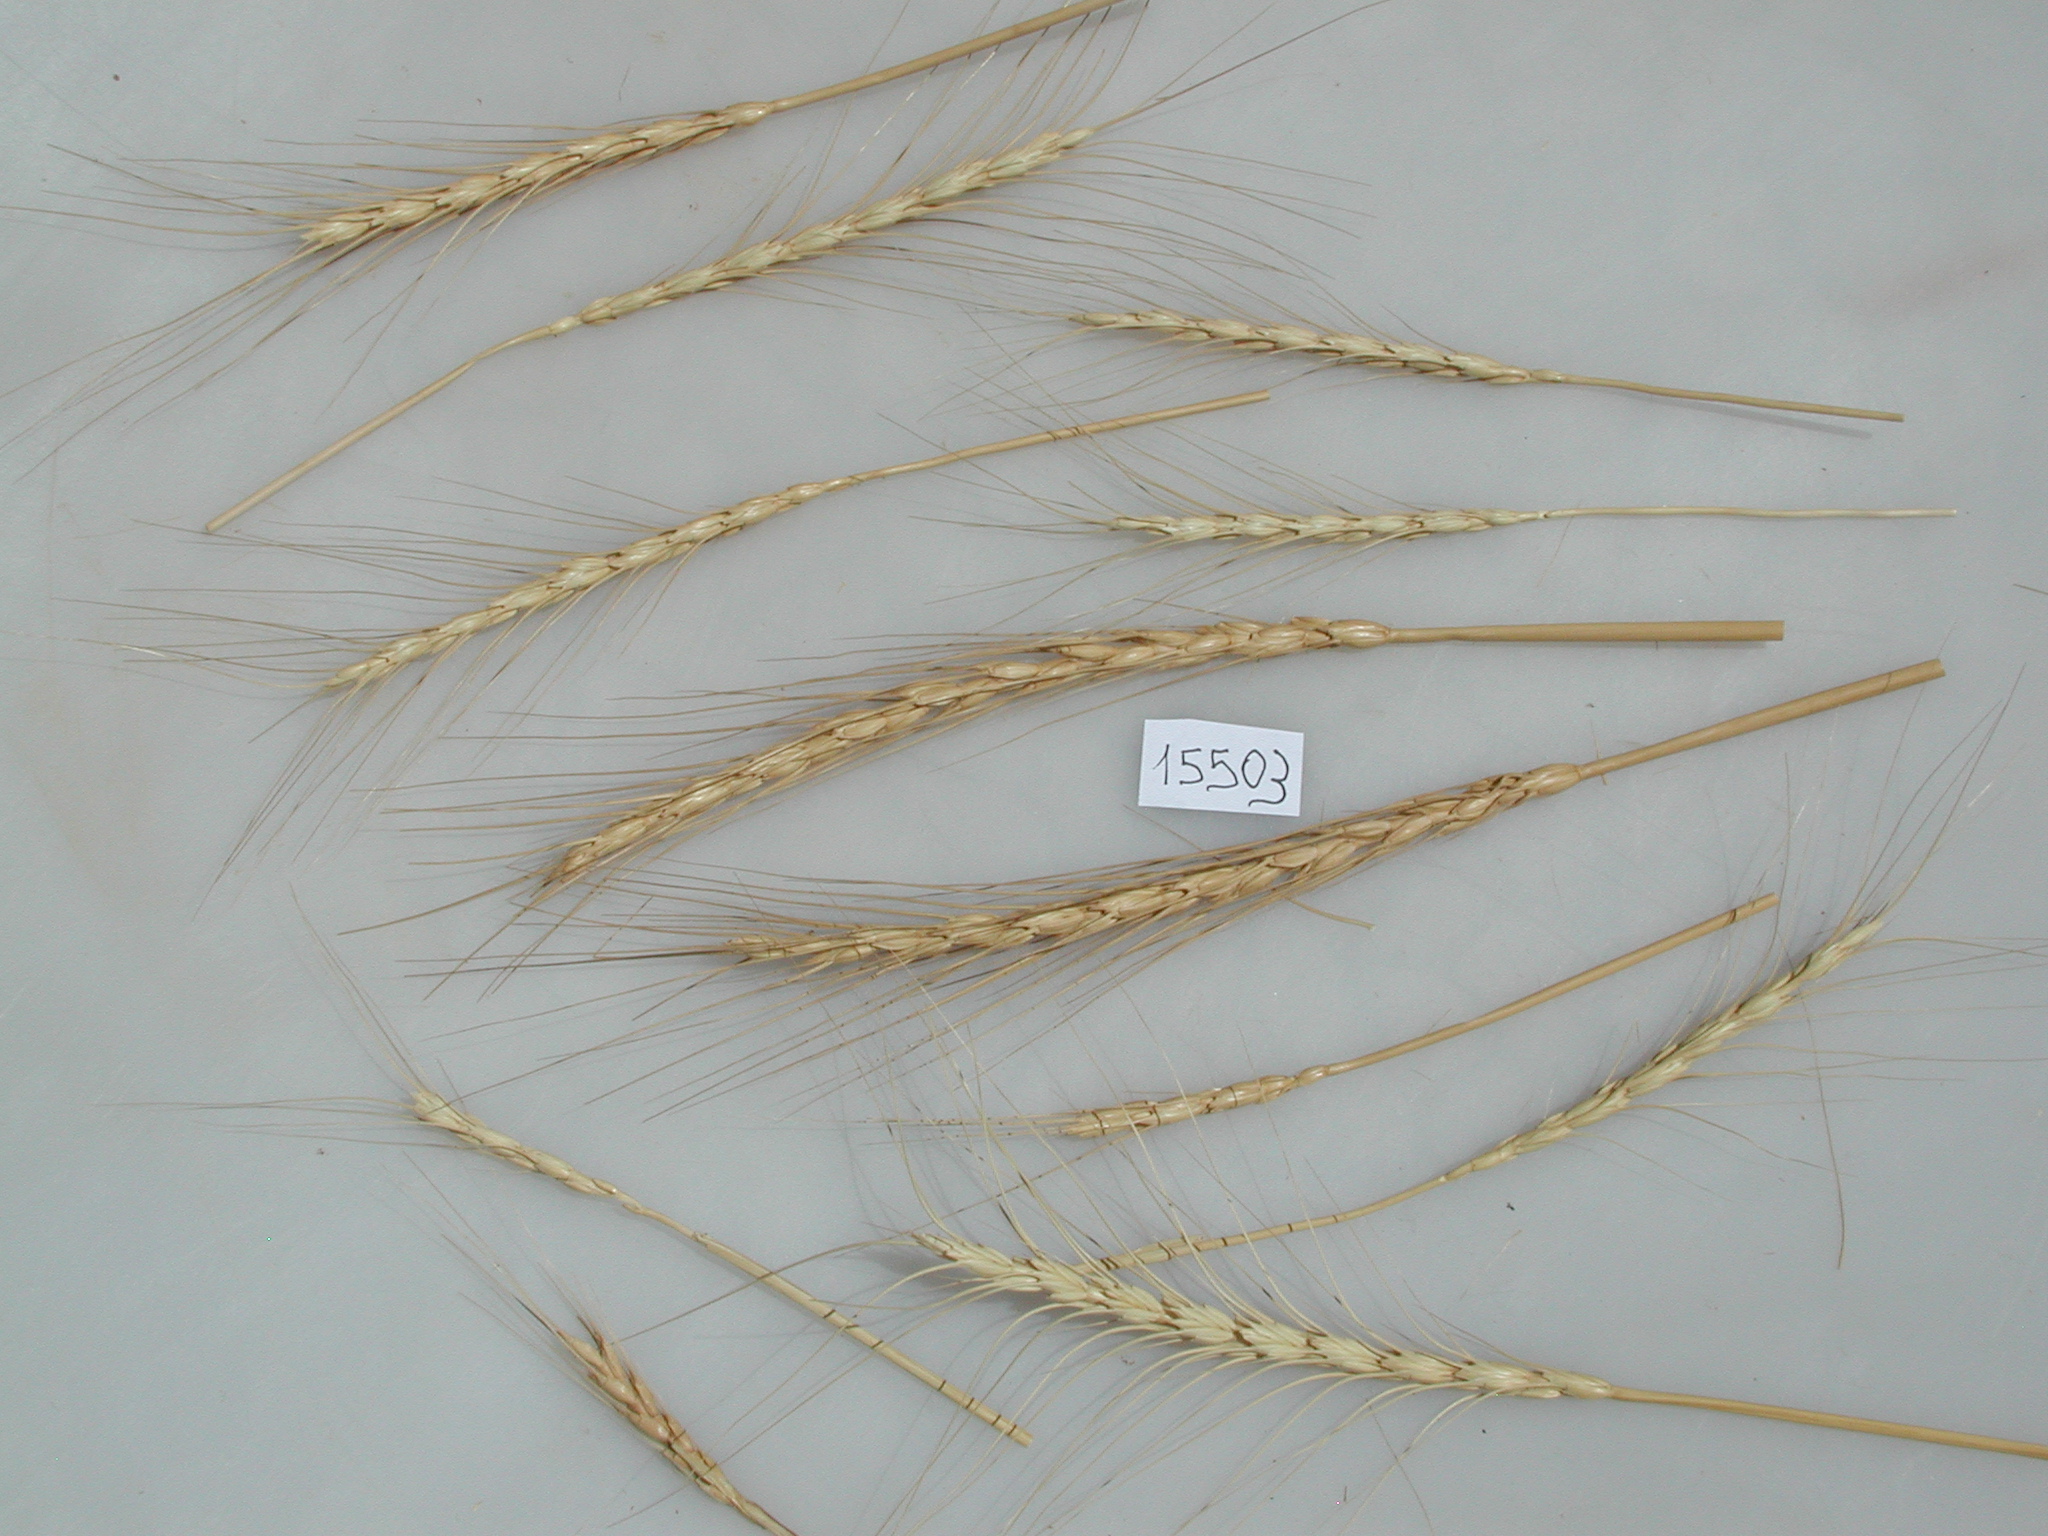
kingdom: Plantae
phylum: Tracheophyta
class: Liliopsida
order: Poales
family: Poaceae
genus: Triticum
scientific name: Triticum aestivum
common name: Common wheat
